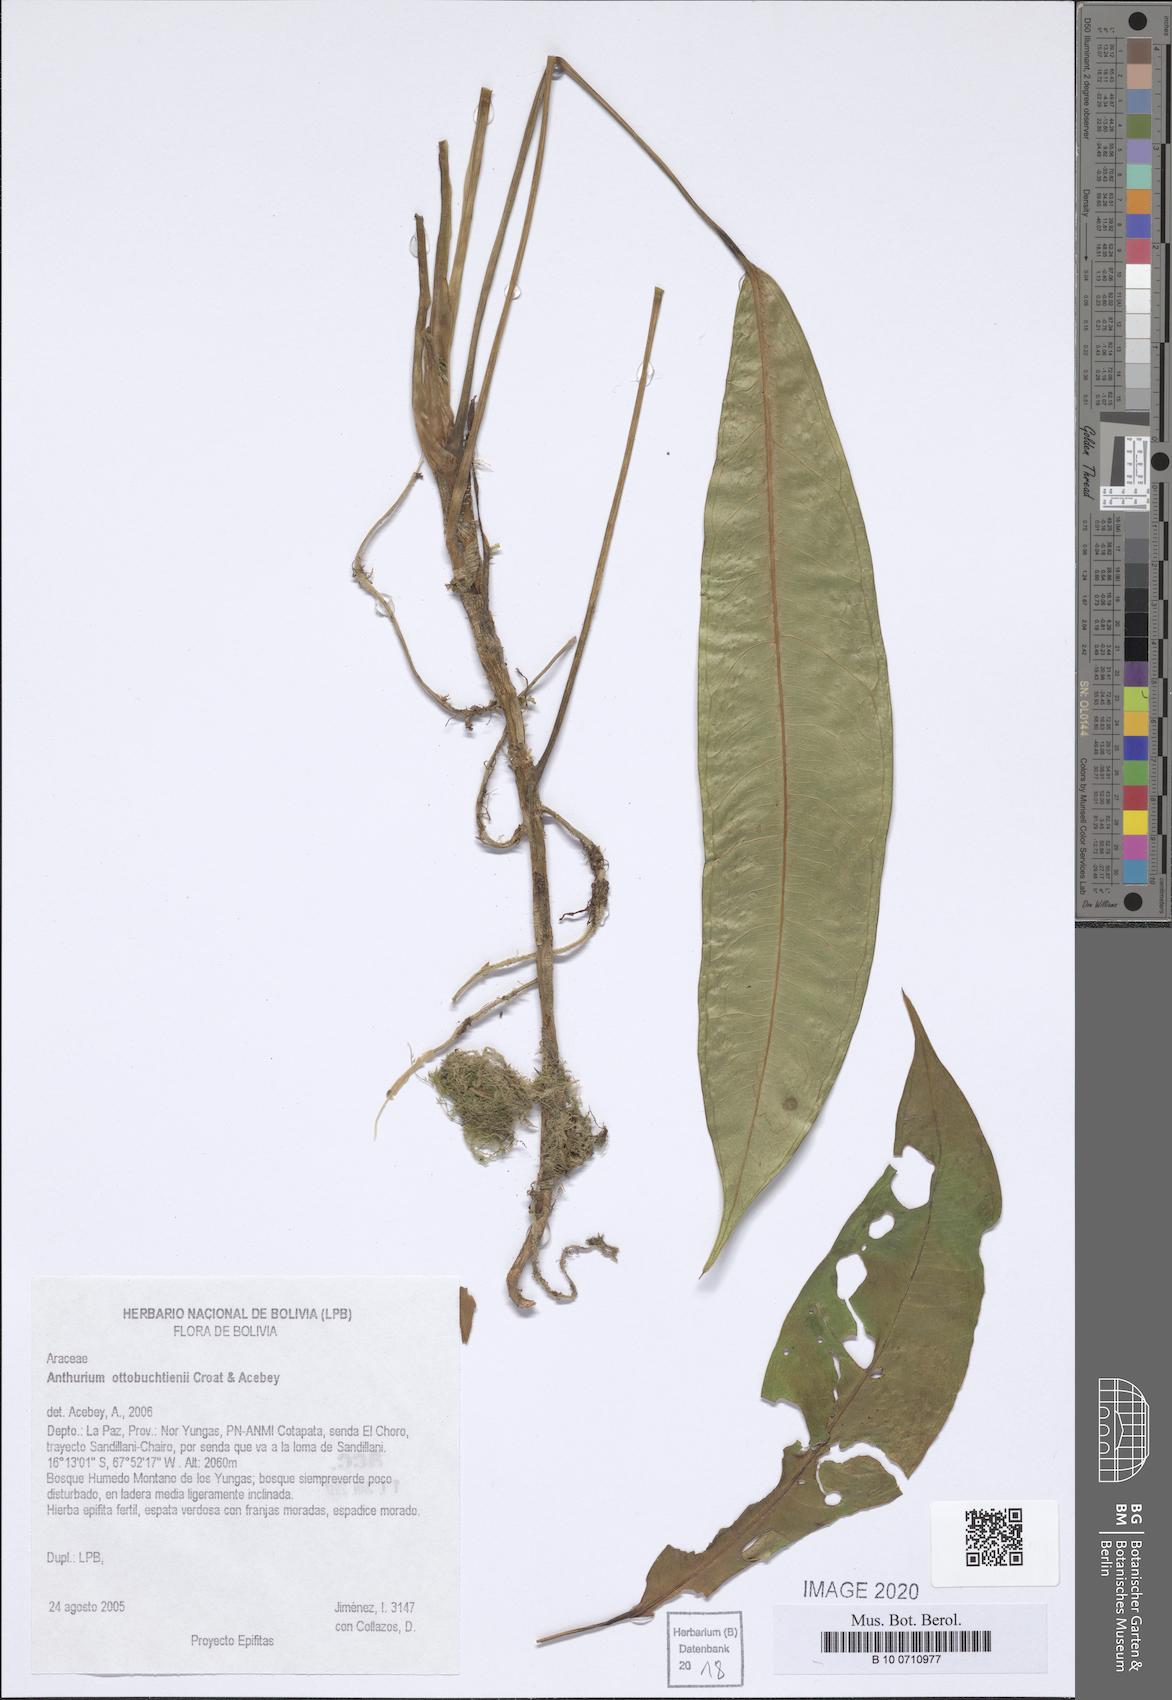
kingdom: Plantae
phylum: Tracheophyta
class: Liliopsida
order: Alismatales
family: Araceae
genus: Anthurium
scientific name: Anthurium ottobuchtienii
